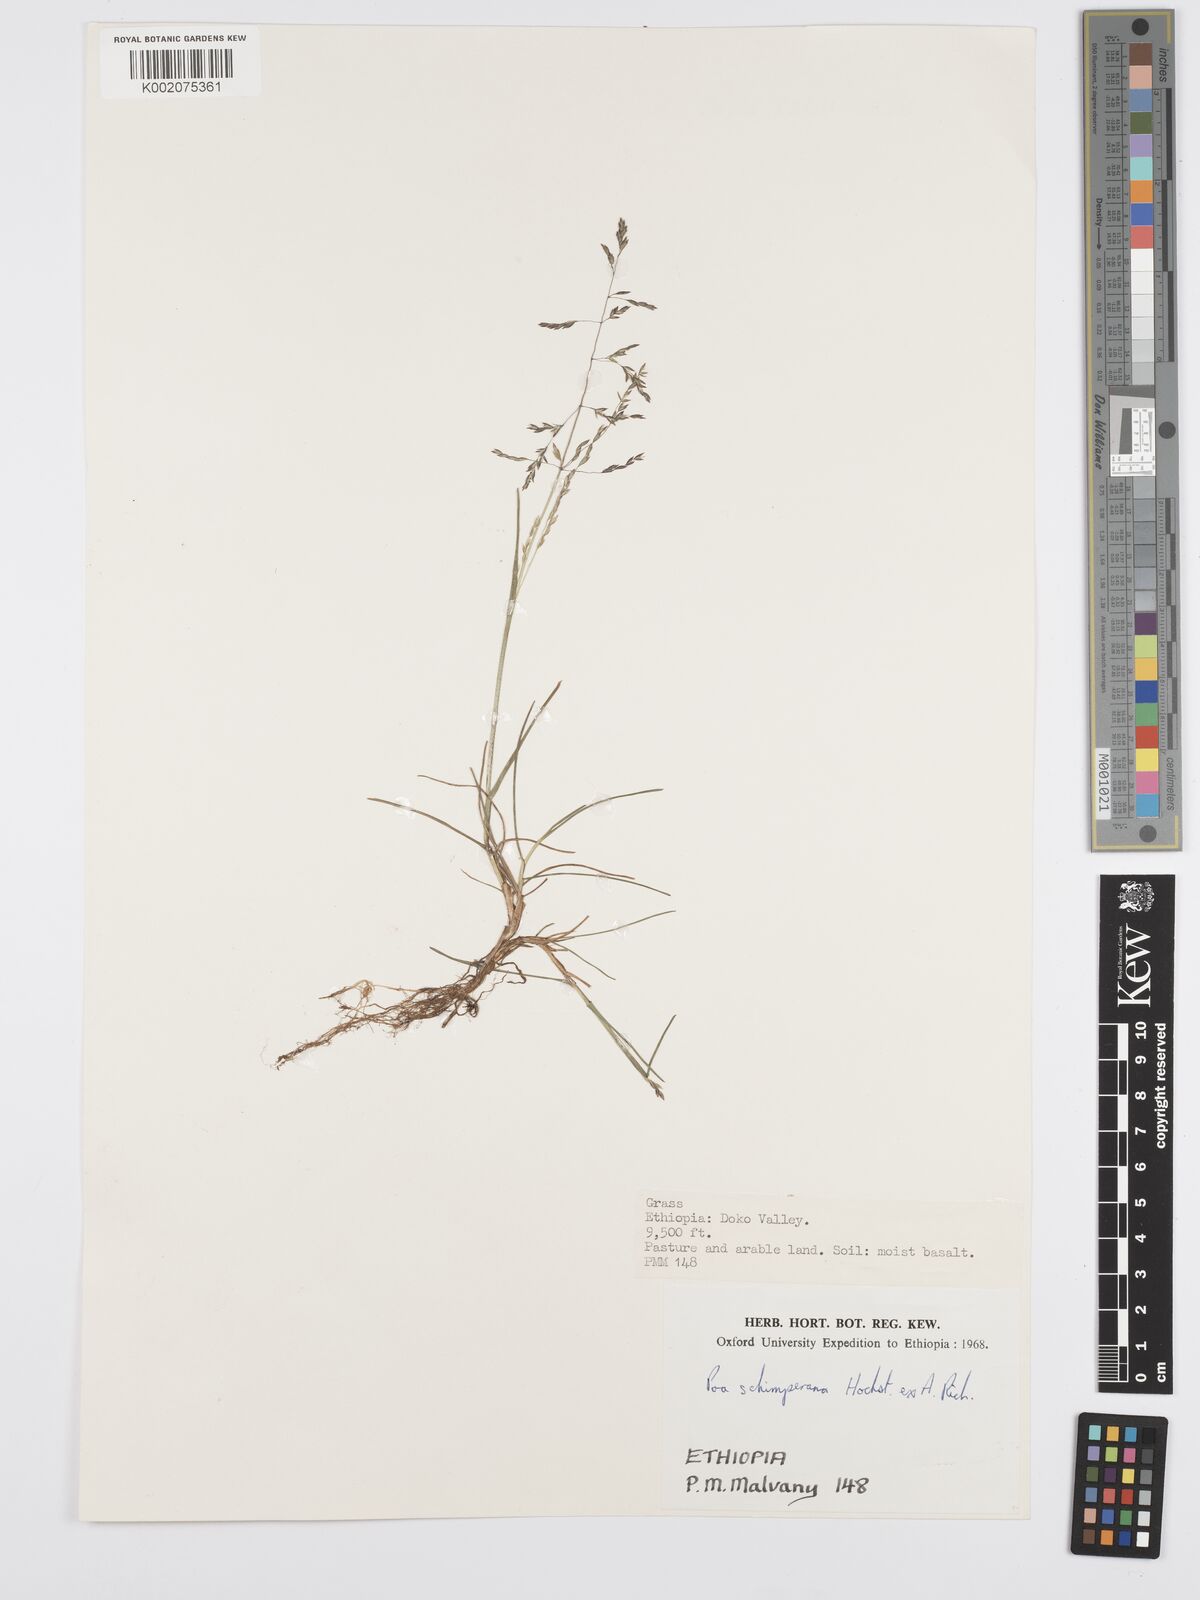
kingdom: Plantae
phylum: Tracheophyta
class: Liliopsida
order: Poales
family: Poaceae
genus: Poa
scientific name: Poa schimperiana
